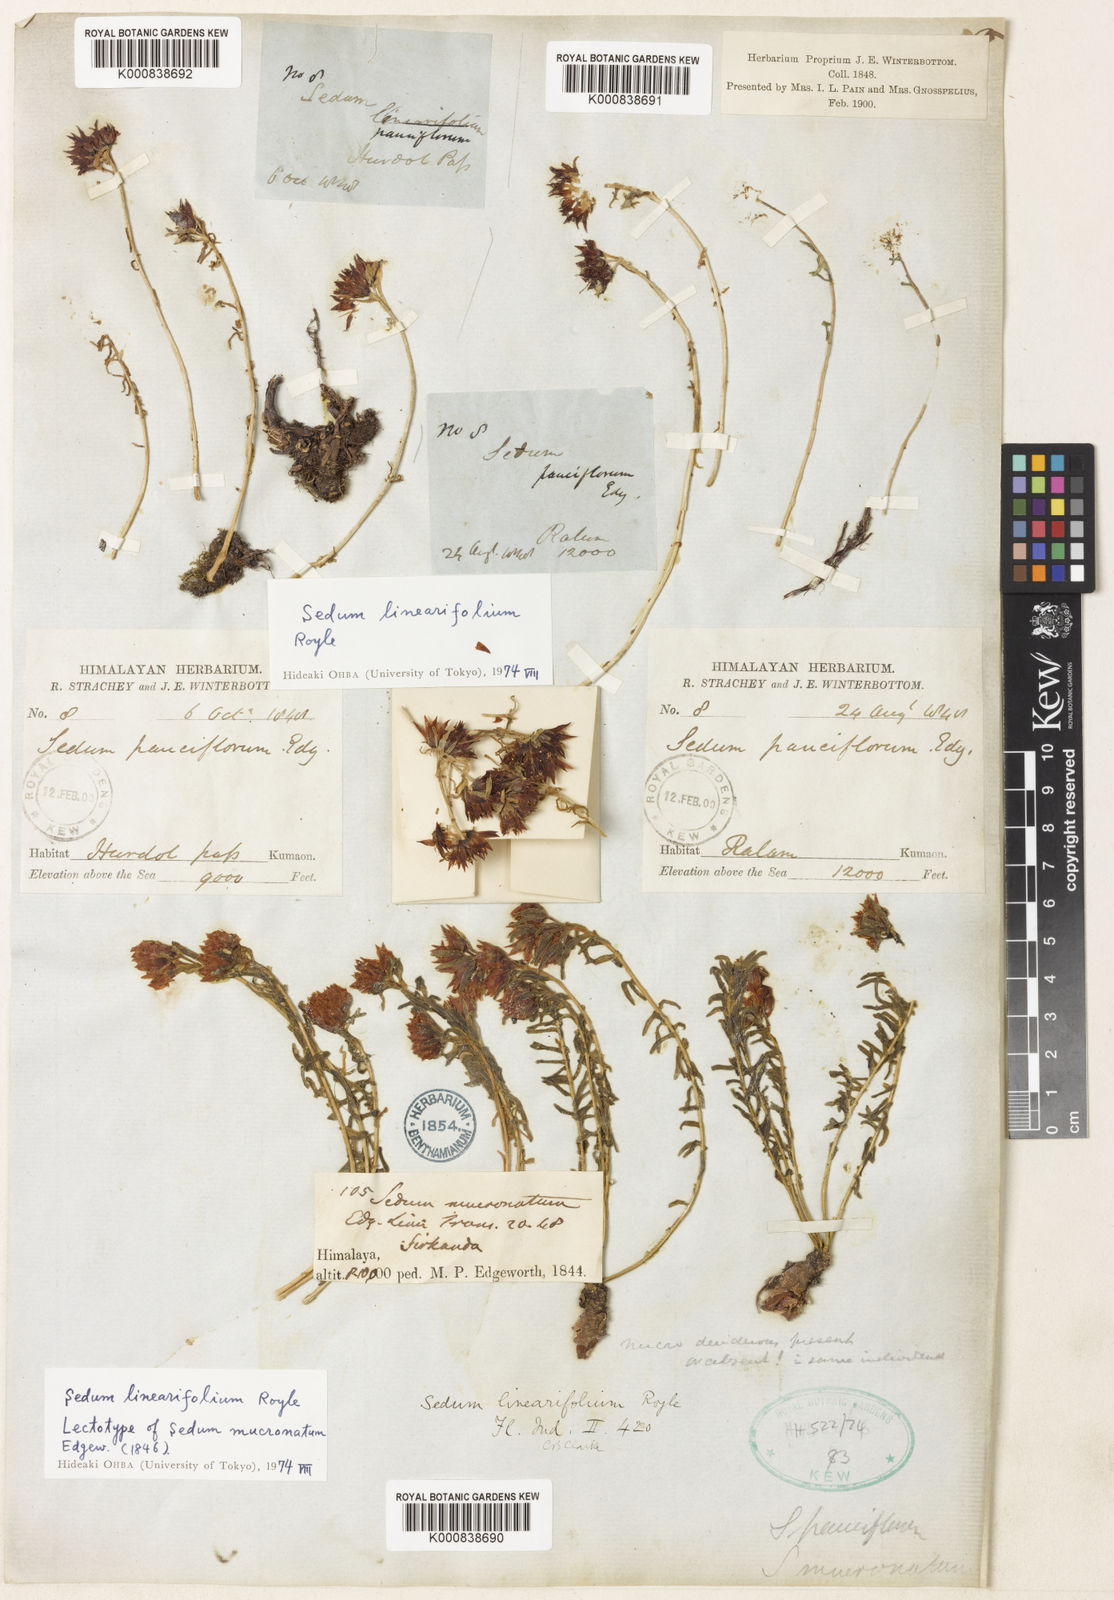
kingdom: Plantae
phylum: Tracheophyta
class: Magnoliopsida
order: Saxifragales
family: Crassulaceae
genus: Rhodiola
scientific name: Rhodiola sinuata
